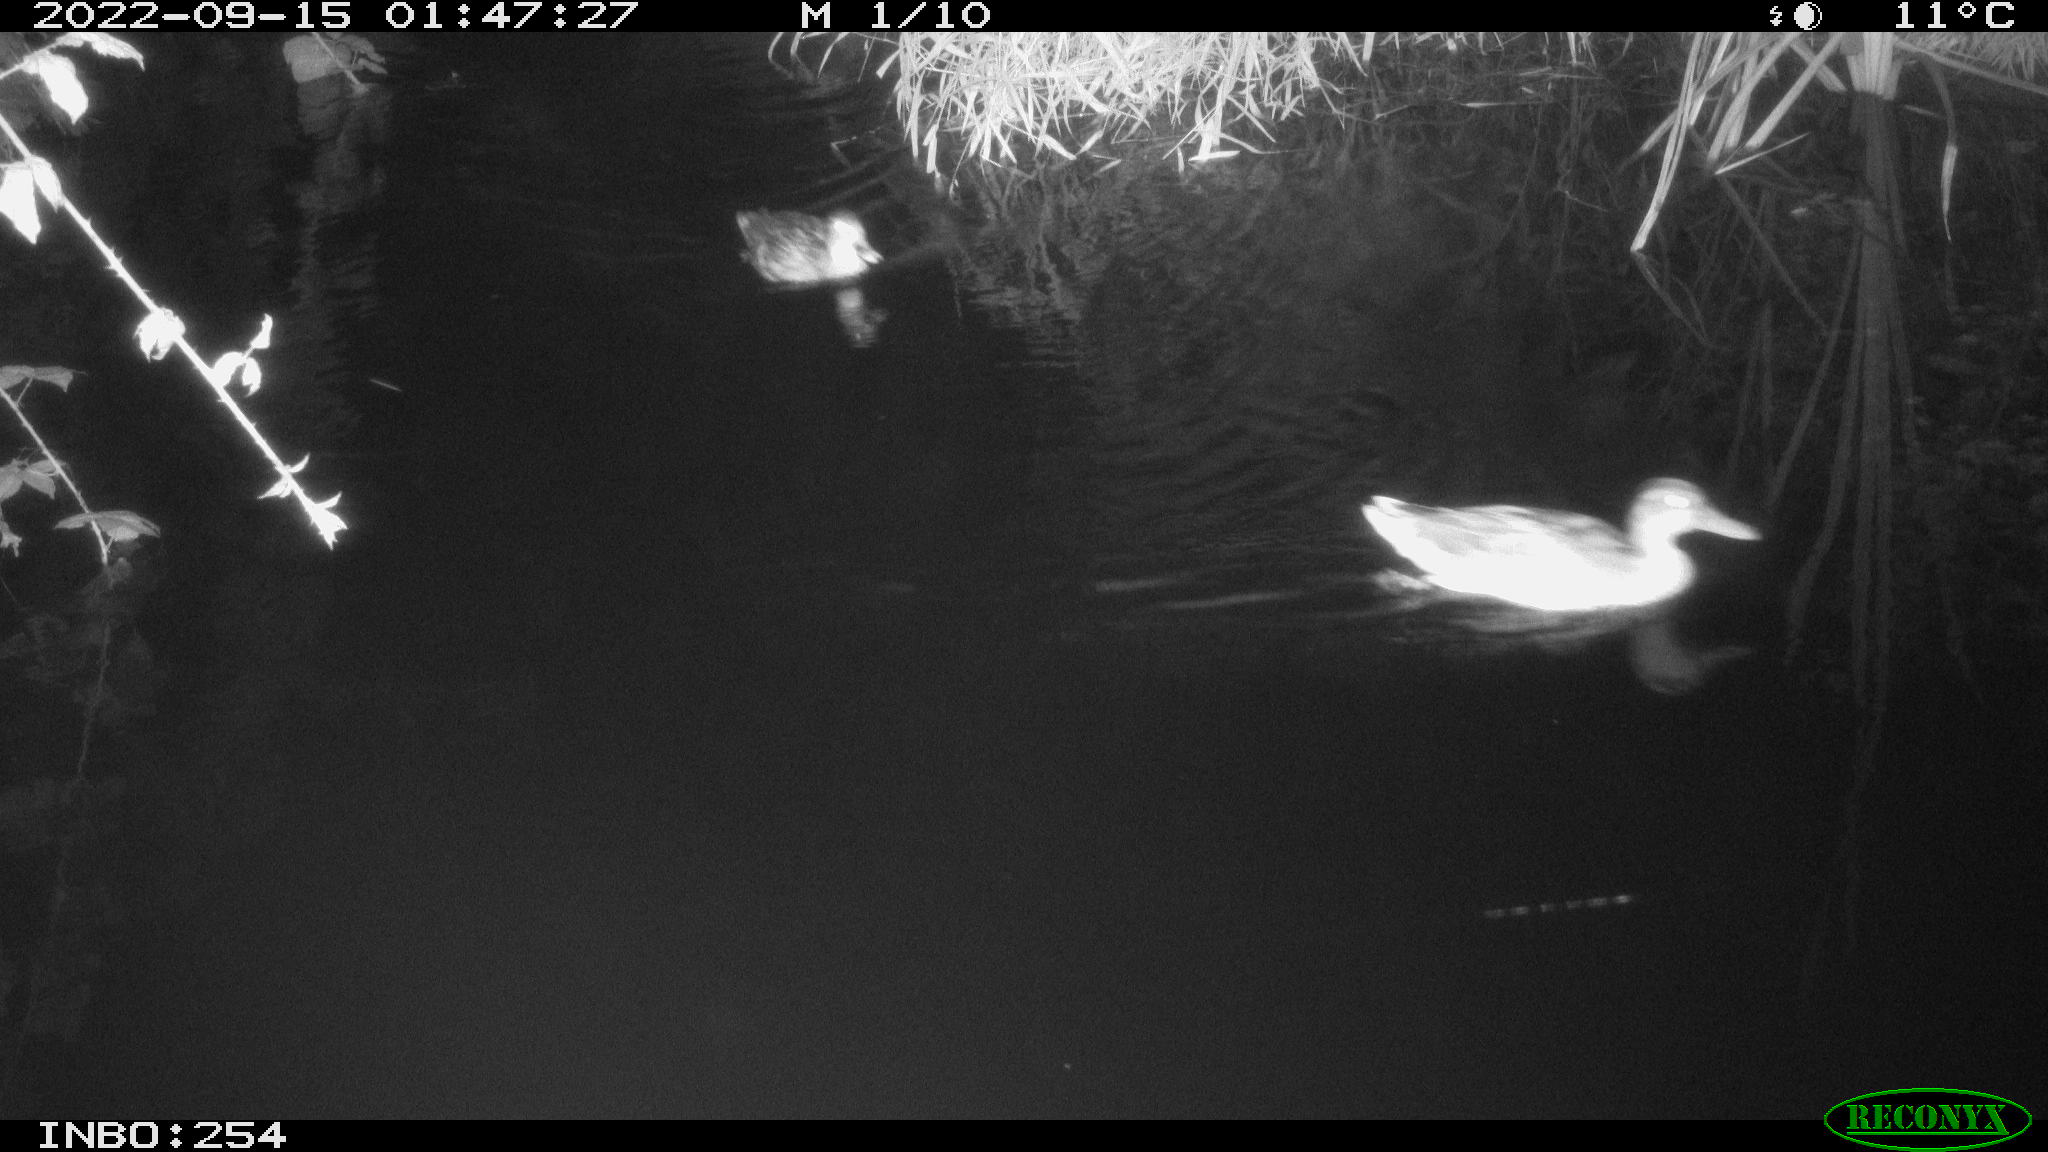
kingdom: Animalia
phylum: Chordata
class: Aves
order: Anseriformes
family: Anatidae
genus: Anas
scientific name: Anas
